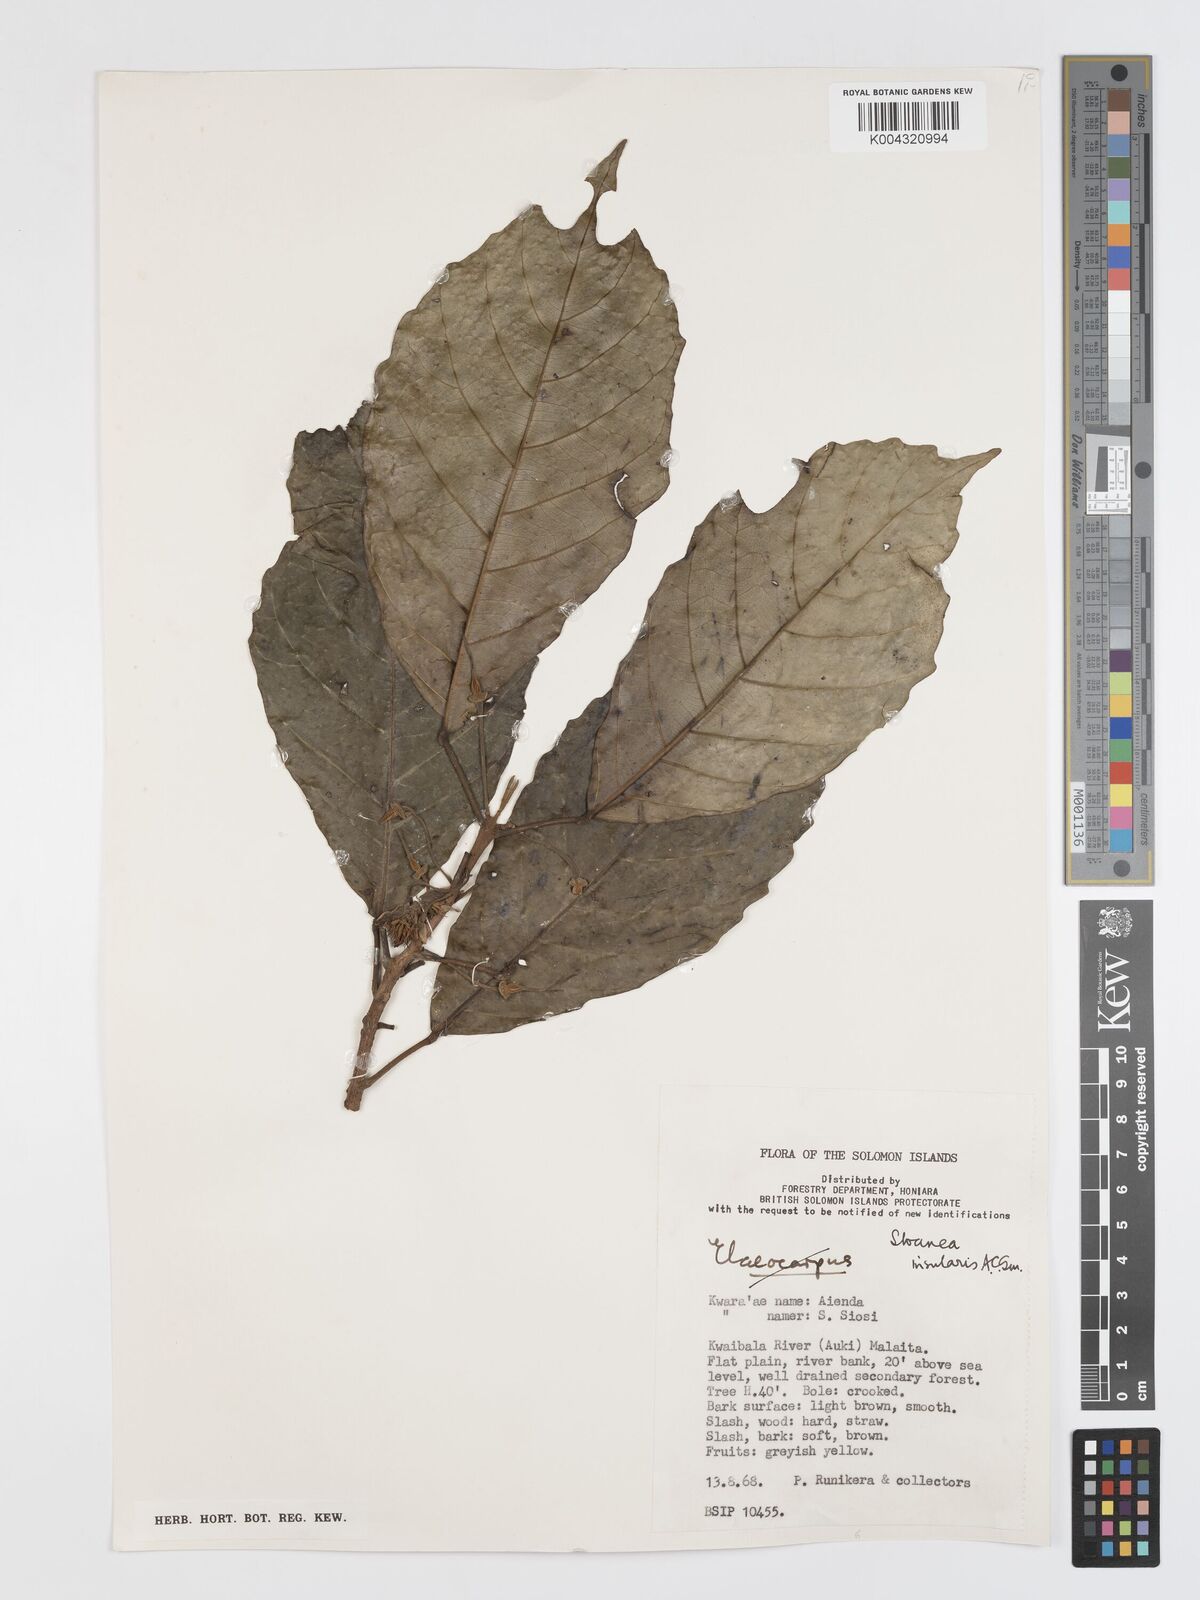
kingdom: Plantae
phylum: Tracheophyta
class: Magnoliopsida
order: Oxalidales
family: Elaeocarpaceae
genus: Sloanea
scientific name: Sloanea insularis
